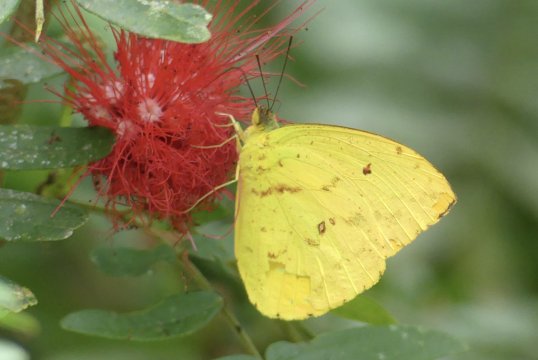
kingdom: Animalia
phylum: Arthropoda
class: Insecta
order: Lepidoptera
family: Pieridae
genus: Phoebis
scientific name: Phoebis philea
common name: Orange-barred Sulphur
